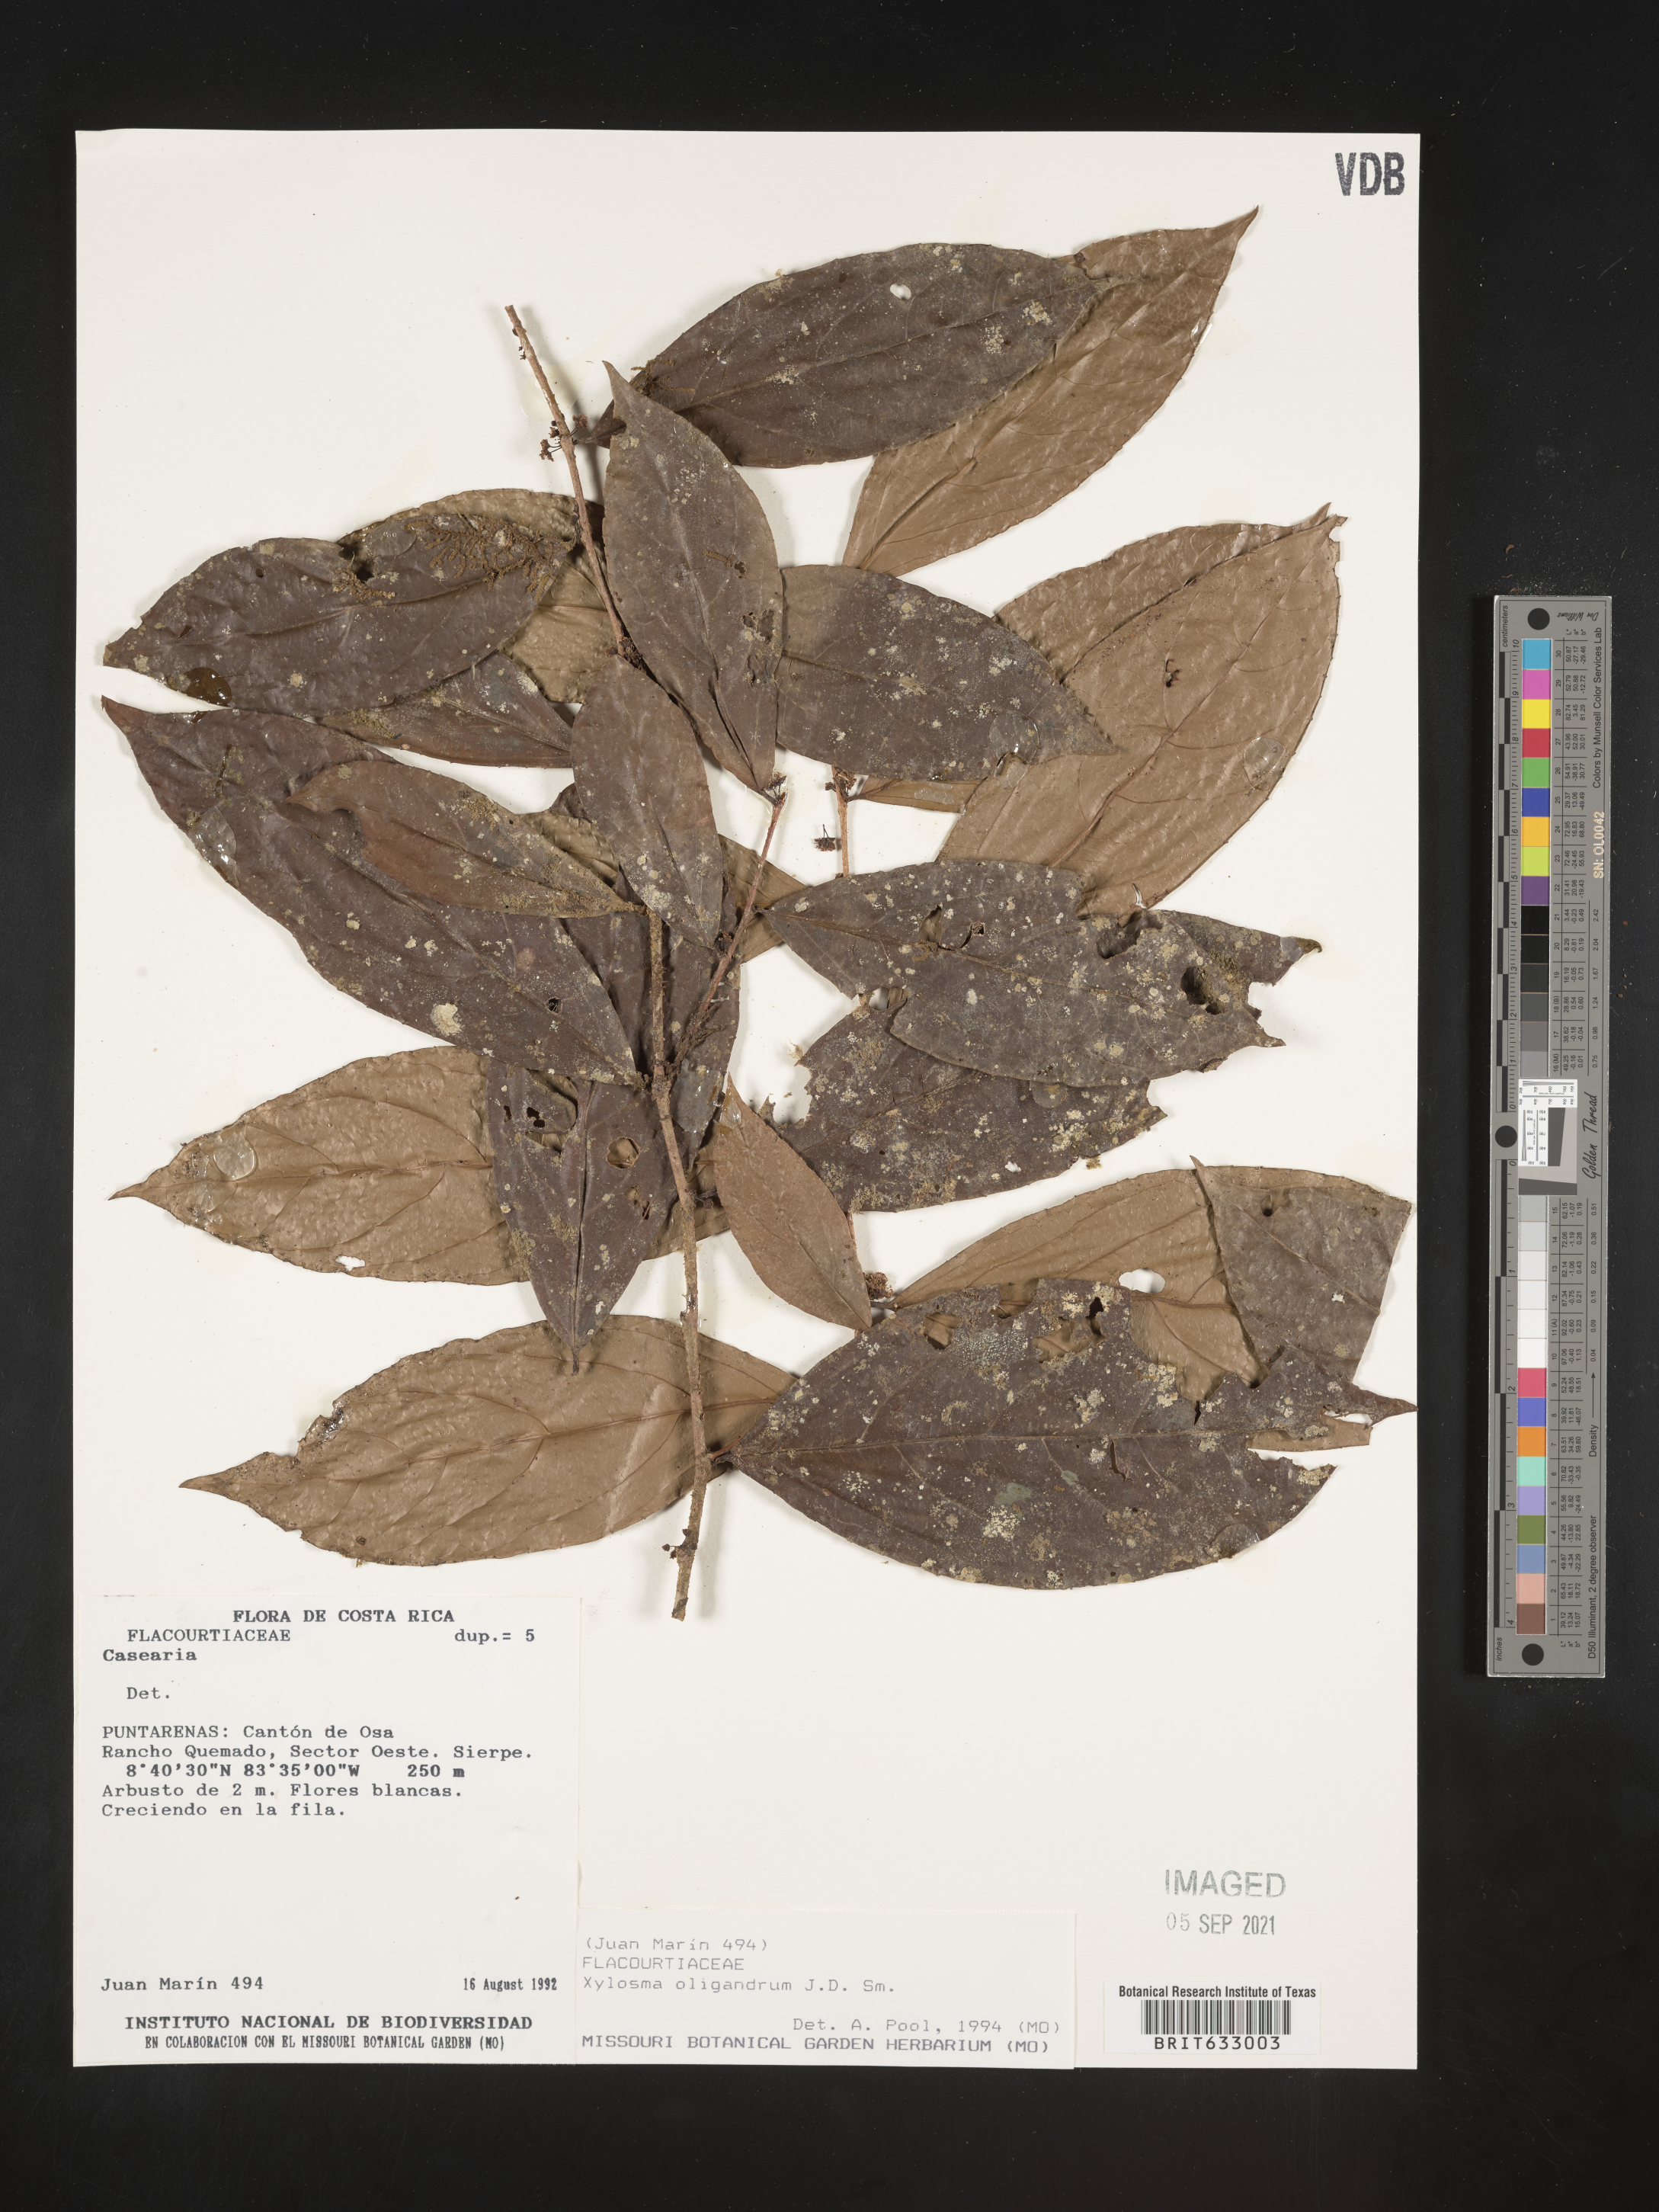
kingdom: Plantae
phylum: Tracheophyta
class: Magnoliopsida
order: Malpighiales
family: Salicaceae
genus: Xylosma
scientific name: Xylosma
